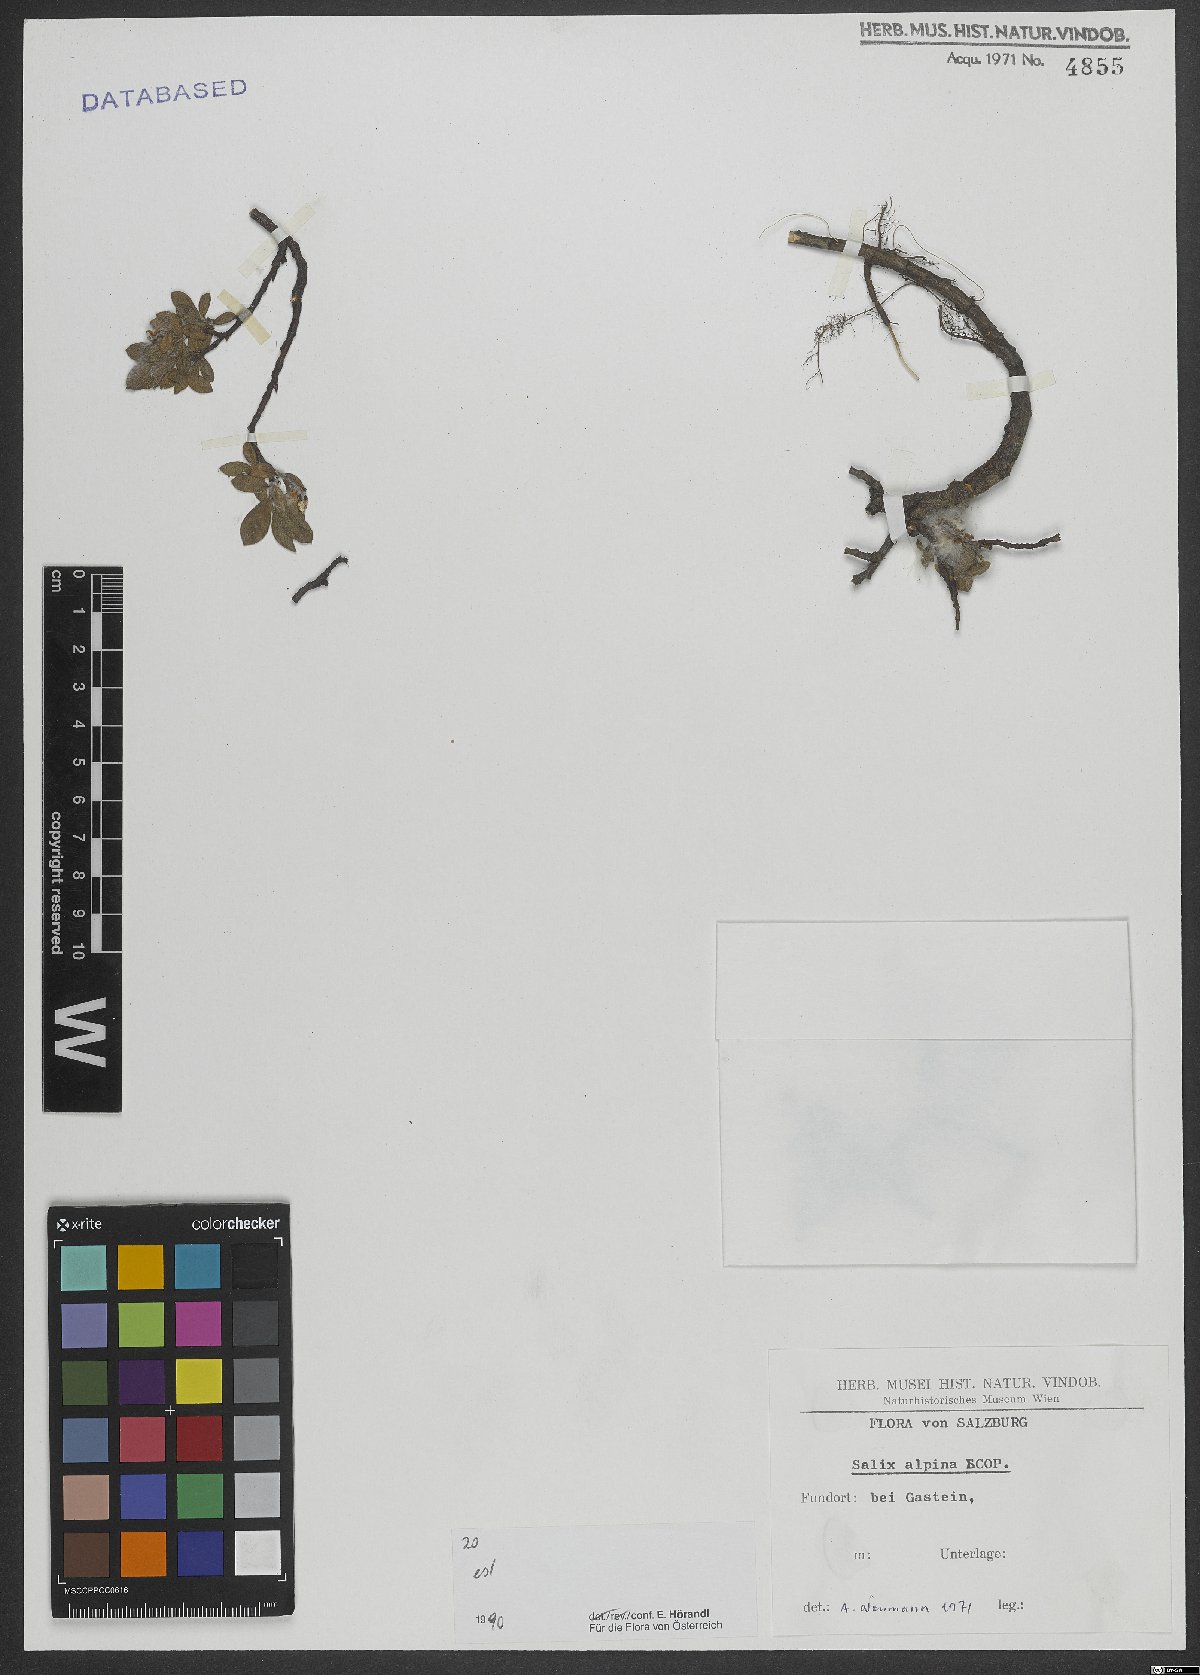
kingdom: Plantae
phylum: Tracheophyta
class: Magnoliopsida
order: Malpighiales
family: Salicaceae
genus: Salix
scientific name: Salix alpina
